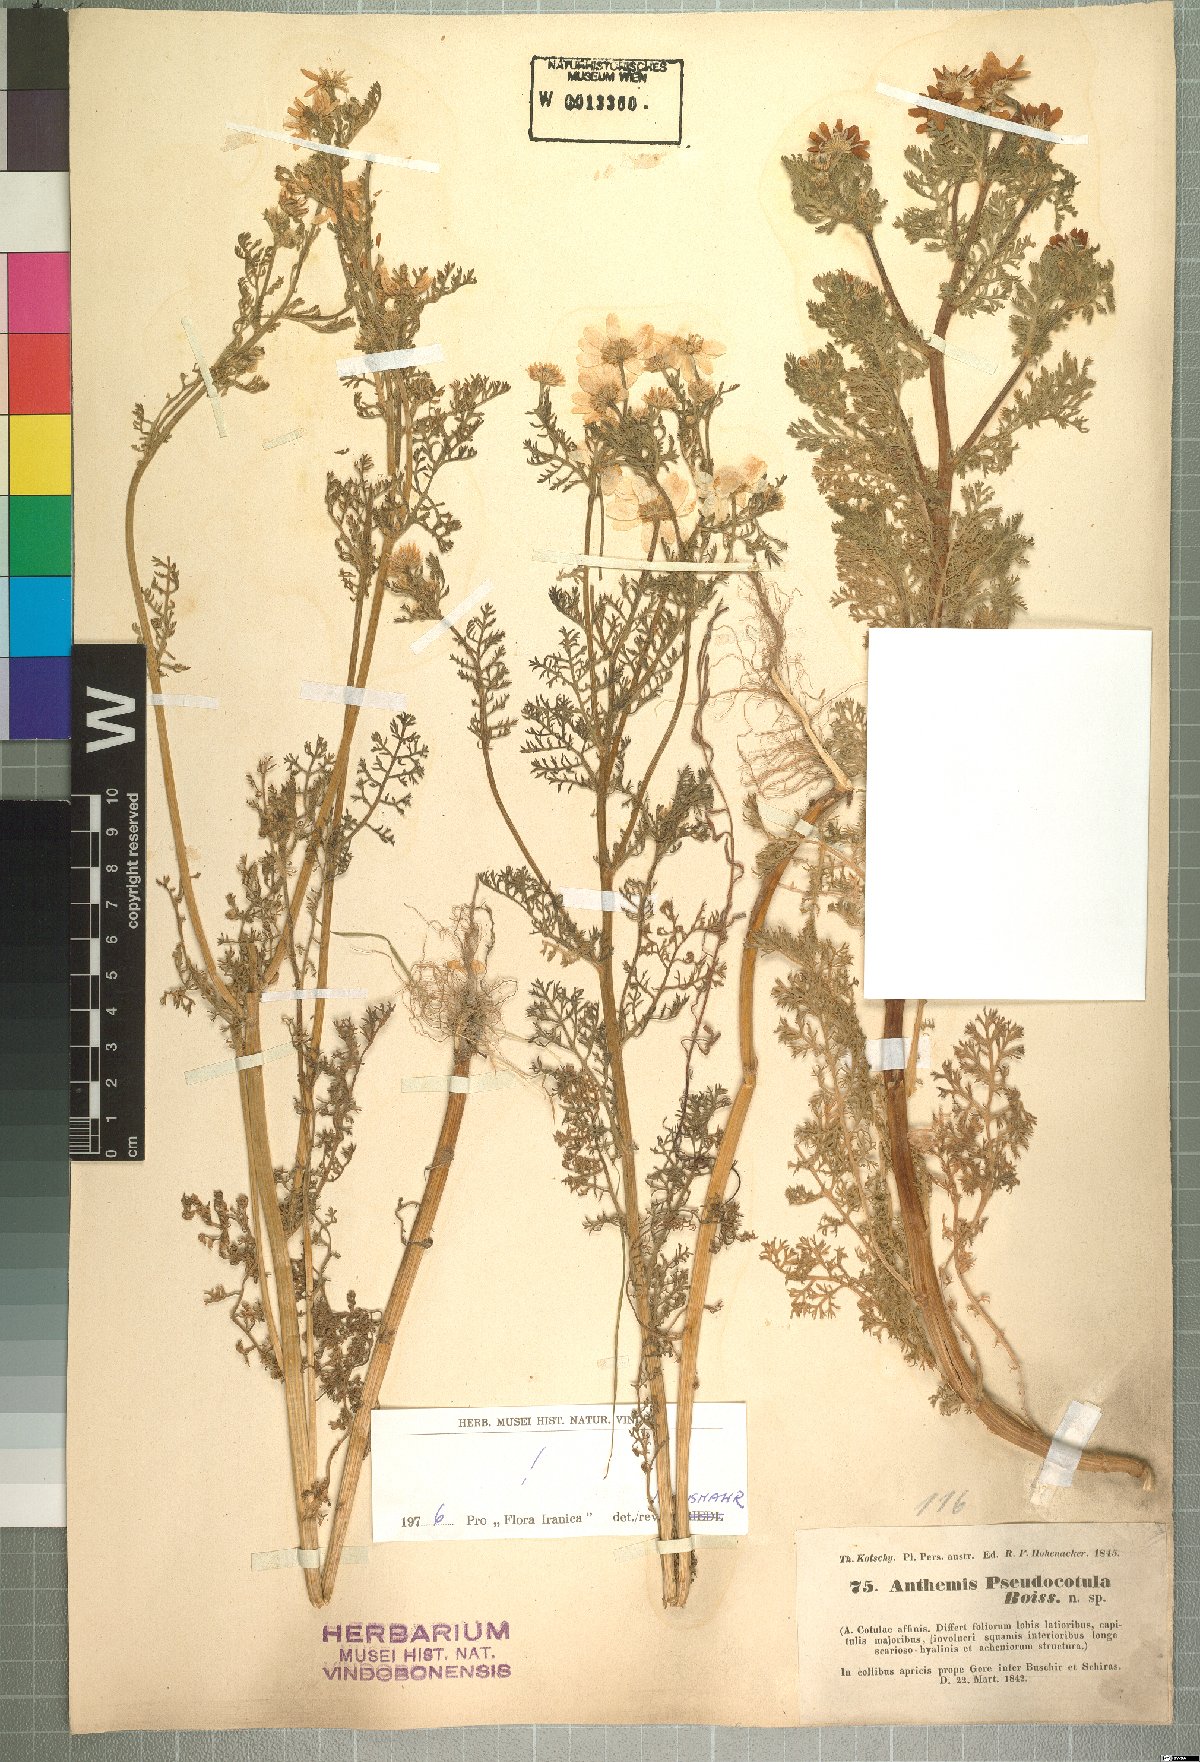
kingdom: Plantae
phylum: Tracheophyta
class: Magnoliopsida
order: Asterales
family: Asteraceae
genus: Anthemis
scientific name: Anthemis pseudocotula
